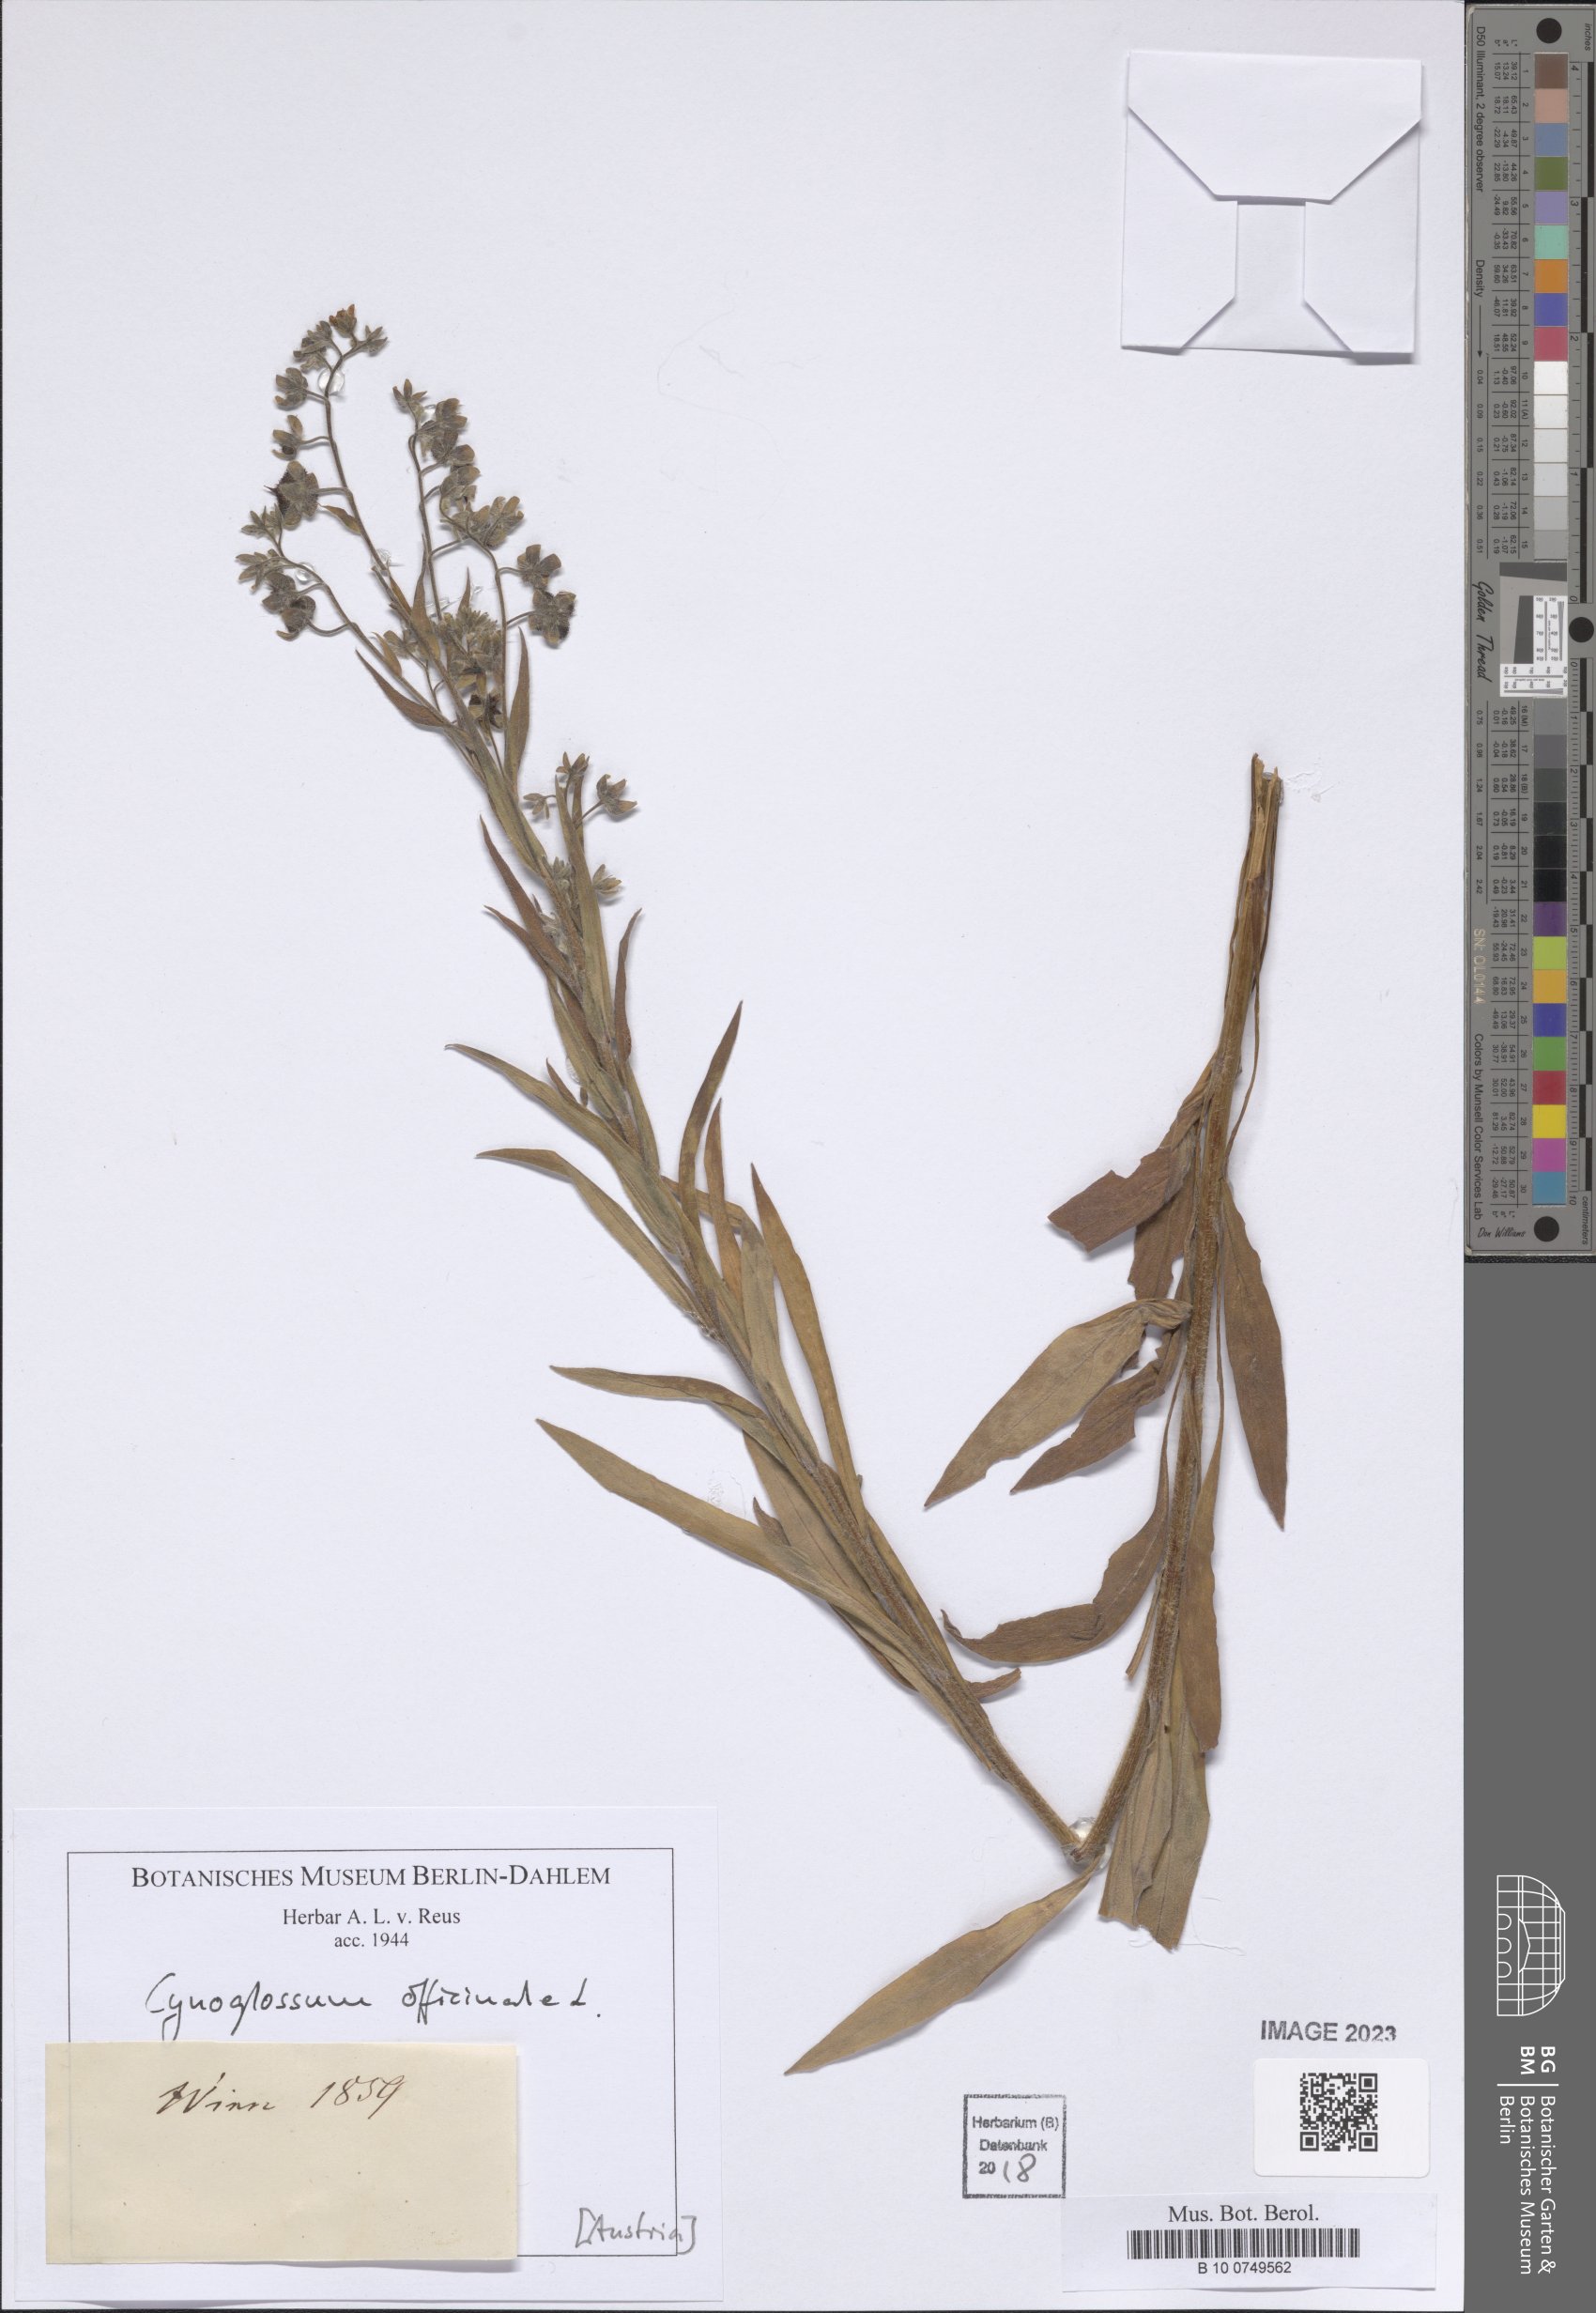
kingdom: Plantae
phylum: Tracheophyta
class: Magnoliopsida
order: Boraginales
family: Boraginaceae
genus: Cynoglossum
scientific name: Cynoglossum officinale
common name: Hound's-tongue
